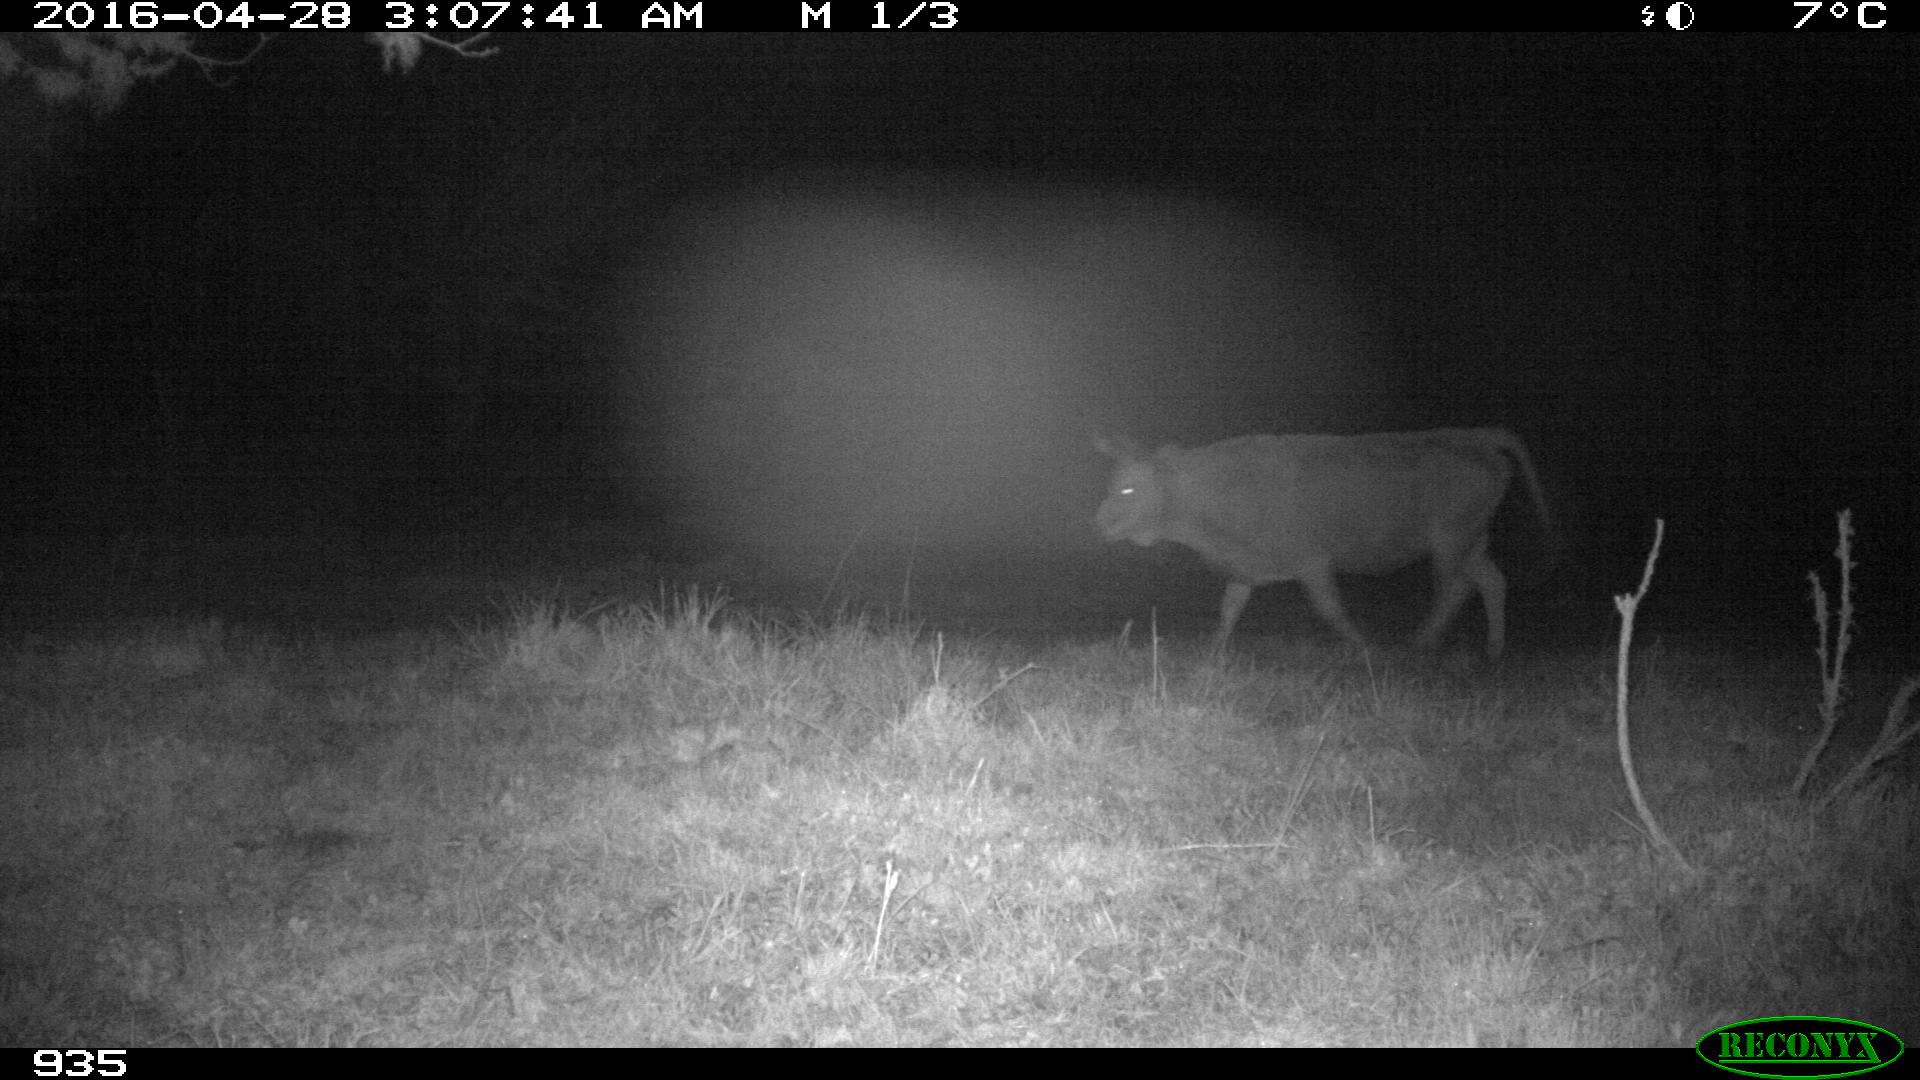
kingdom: Animalia
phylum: Chordata
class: Mammalia
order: Artiodactyla
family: Bovidae
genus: Bos
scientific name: Bos taurus
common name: Domesticated cattle
